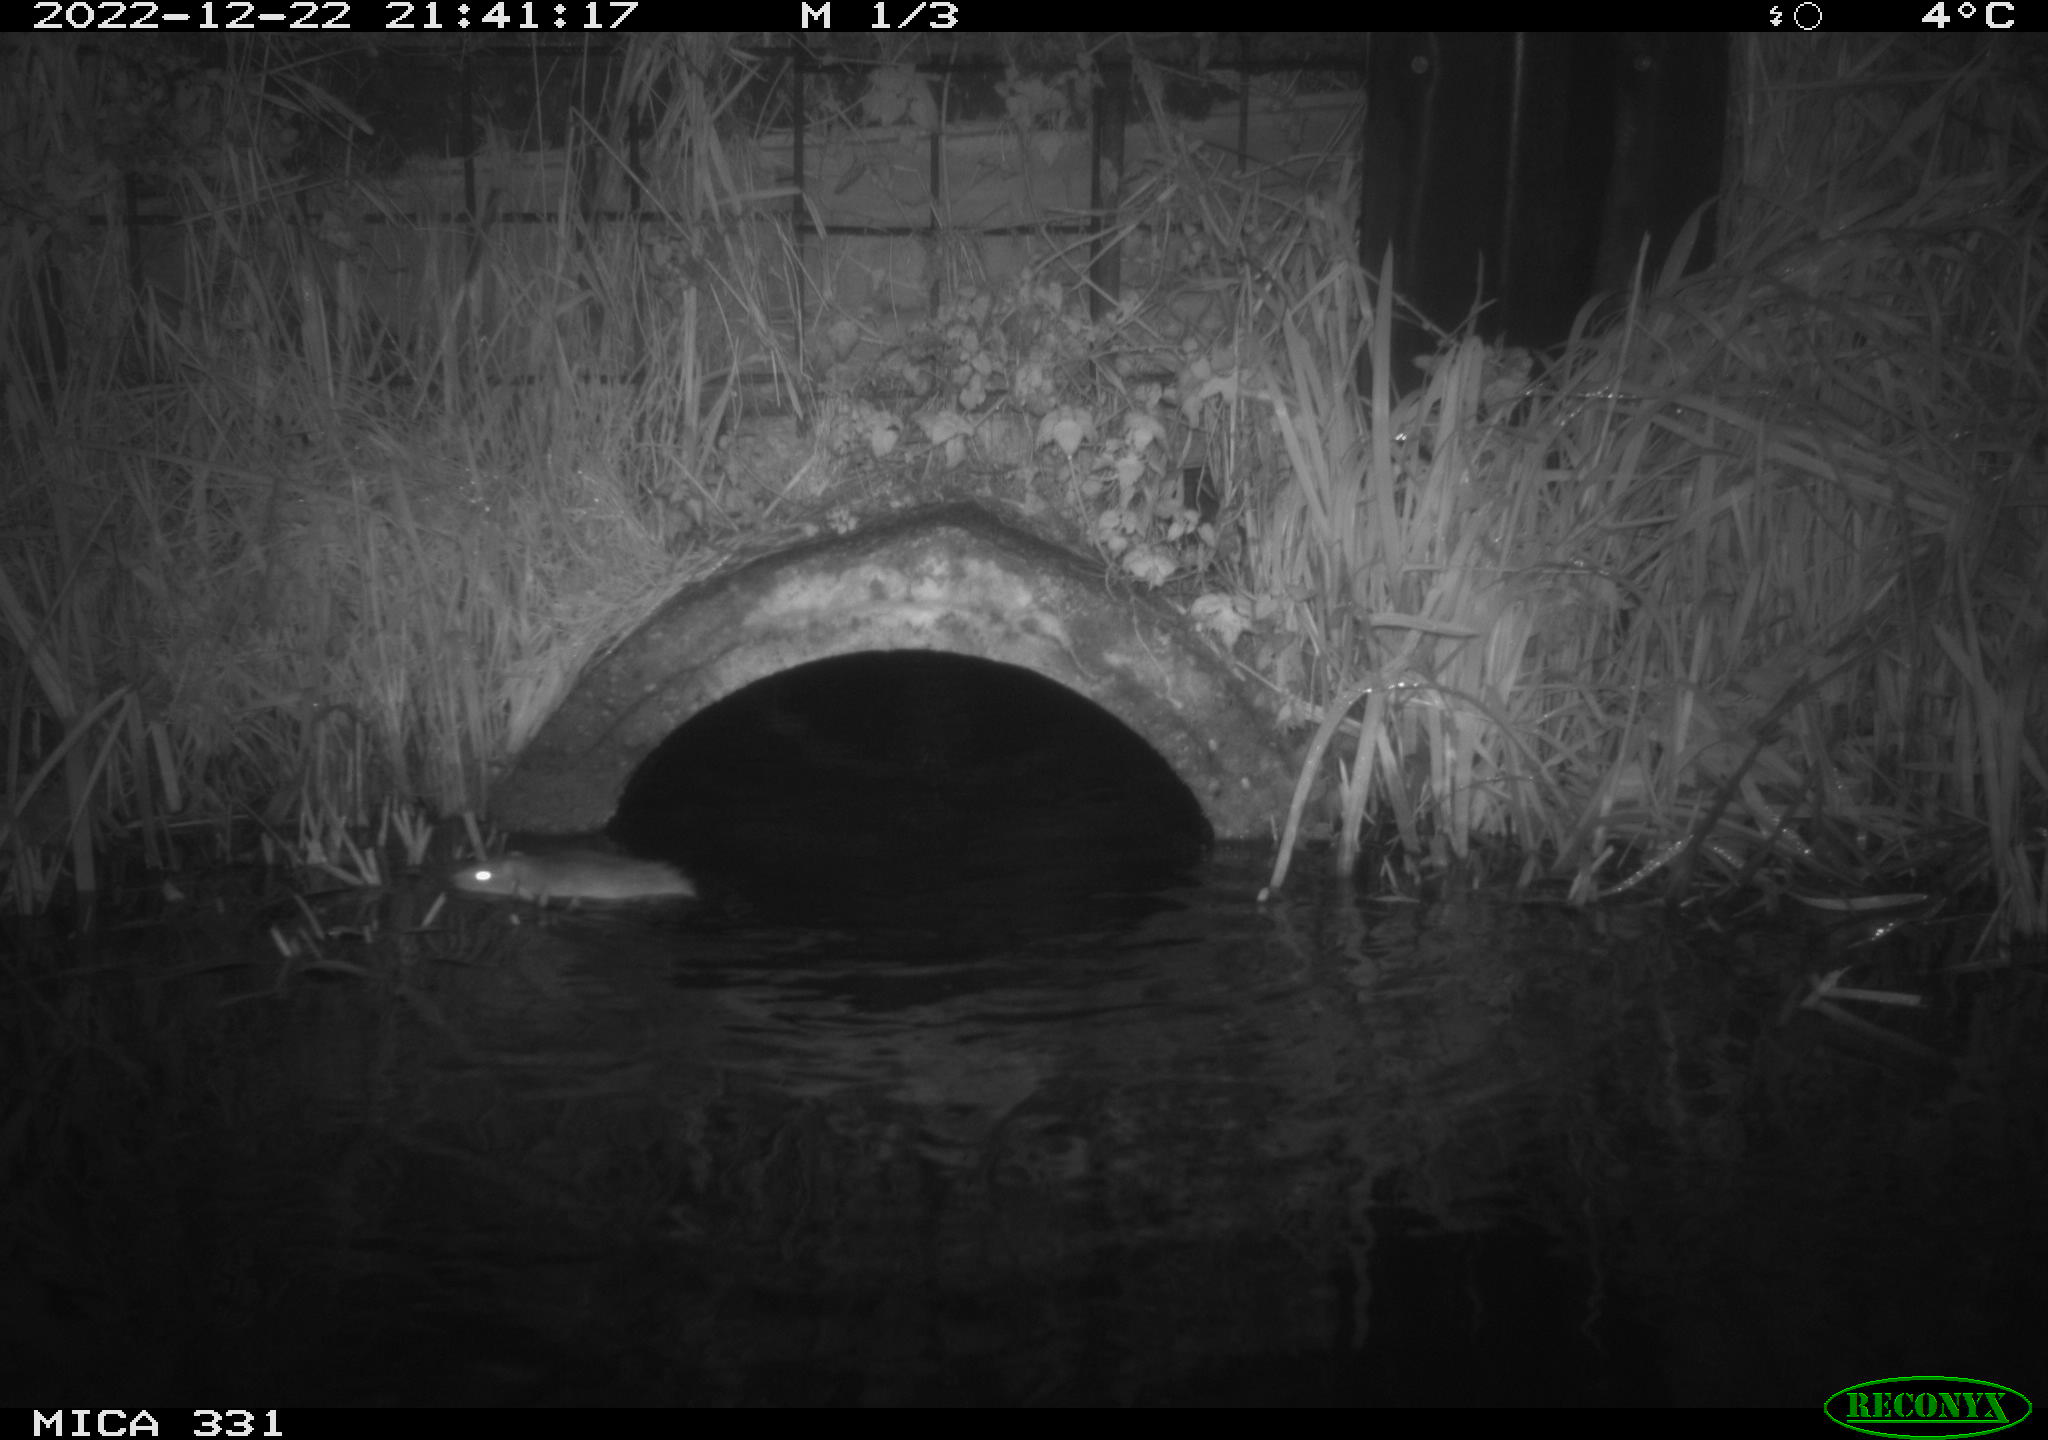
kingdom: Animalia
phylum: Chordata
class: Mammalia
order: Rodentia
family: Muridae
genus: Rattus
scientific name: Rattus norvegicus
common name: Brown rat
